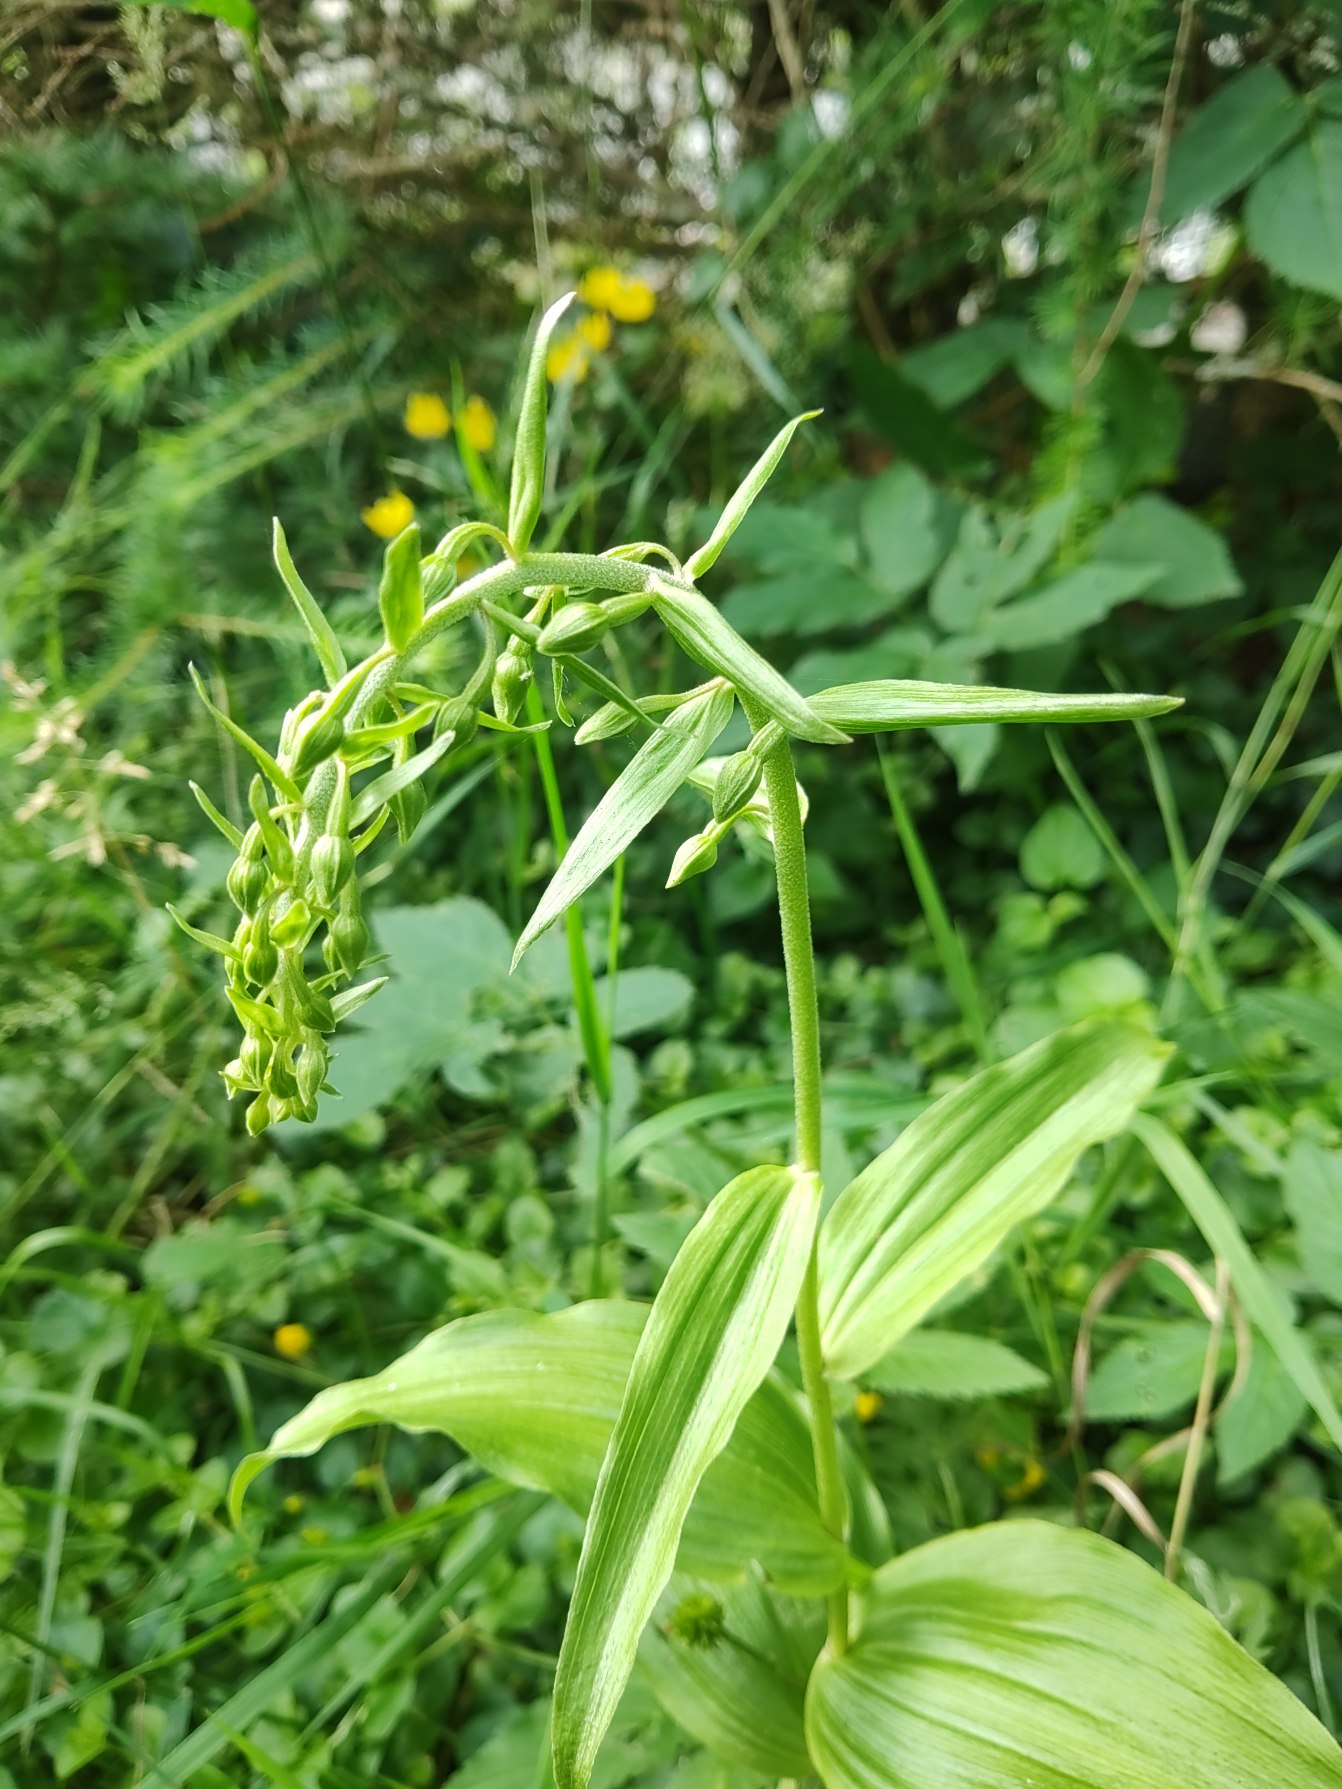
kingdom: Plantae
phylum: Tracheophyta
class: Liliopsida
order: Asparagales
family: Orchidaceae
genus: Epipactis
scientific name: Epipactis helleborine
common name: Skov-hullæbe
